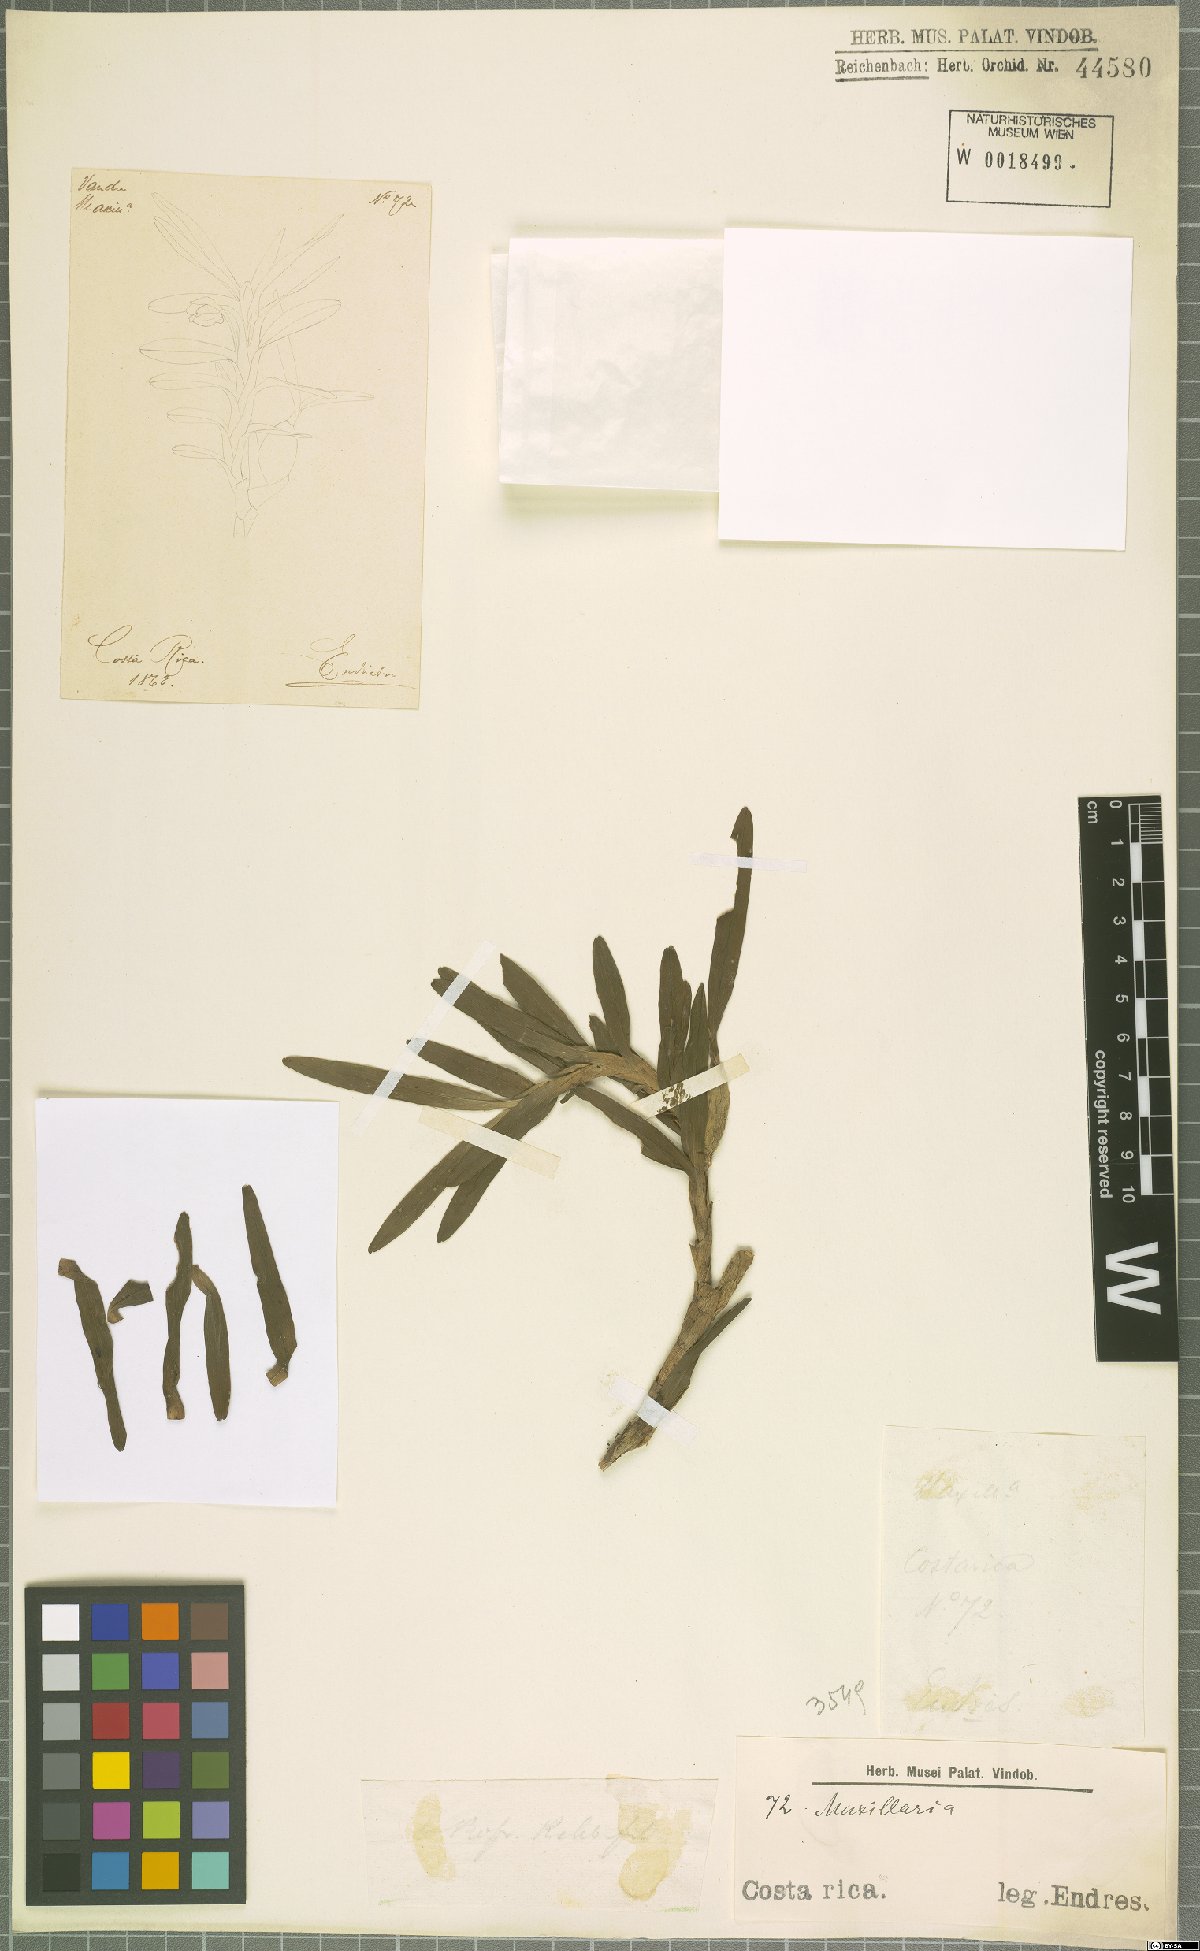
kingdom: Plantae
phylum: Tracheophyta
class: Liliopsida
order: Asparagales
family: Orchidaceae
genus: Maxillaria
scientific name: Maxillaria
